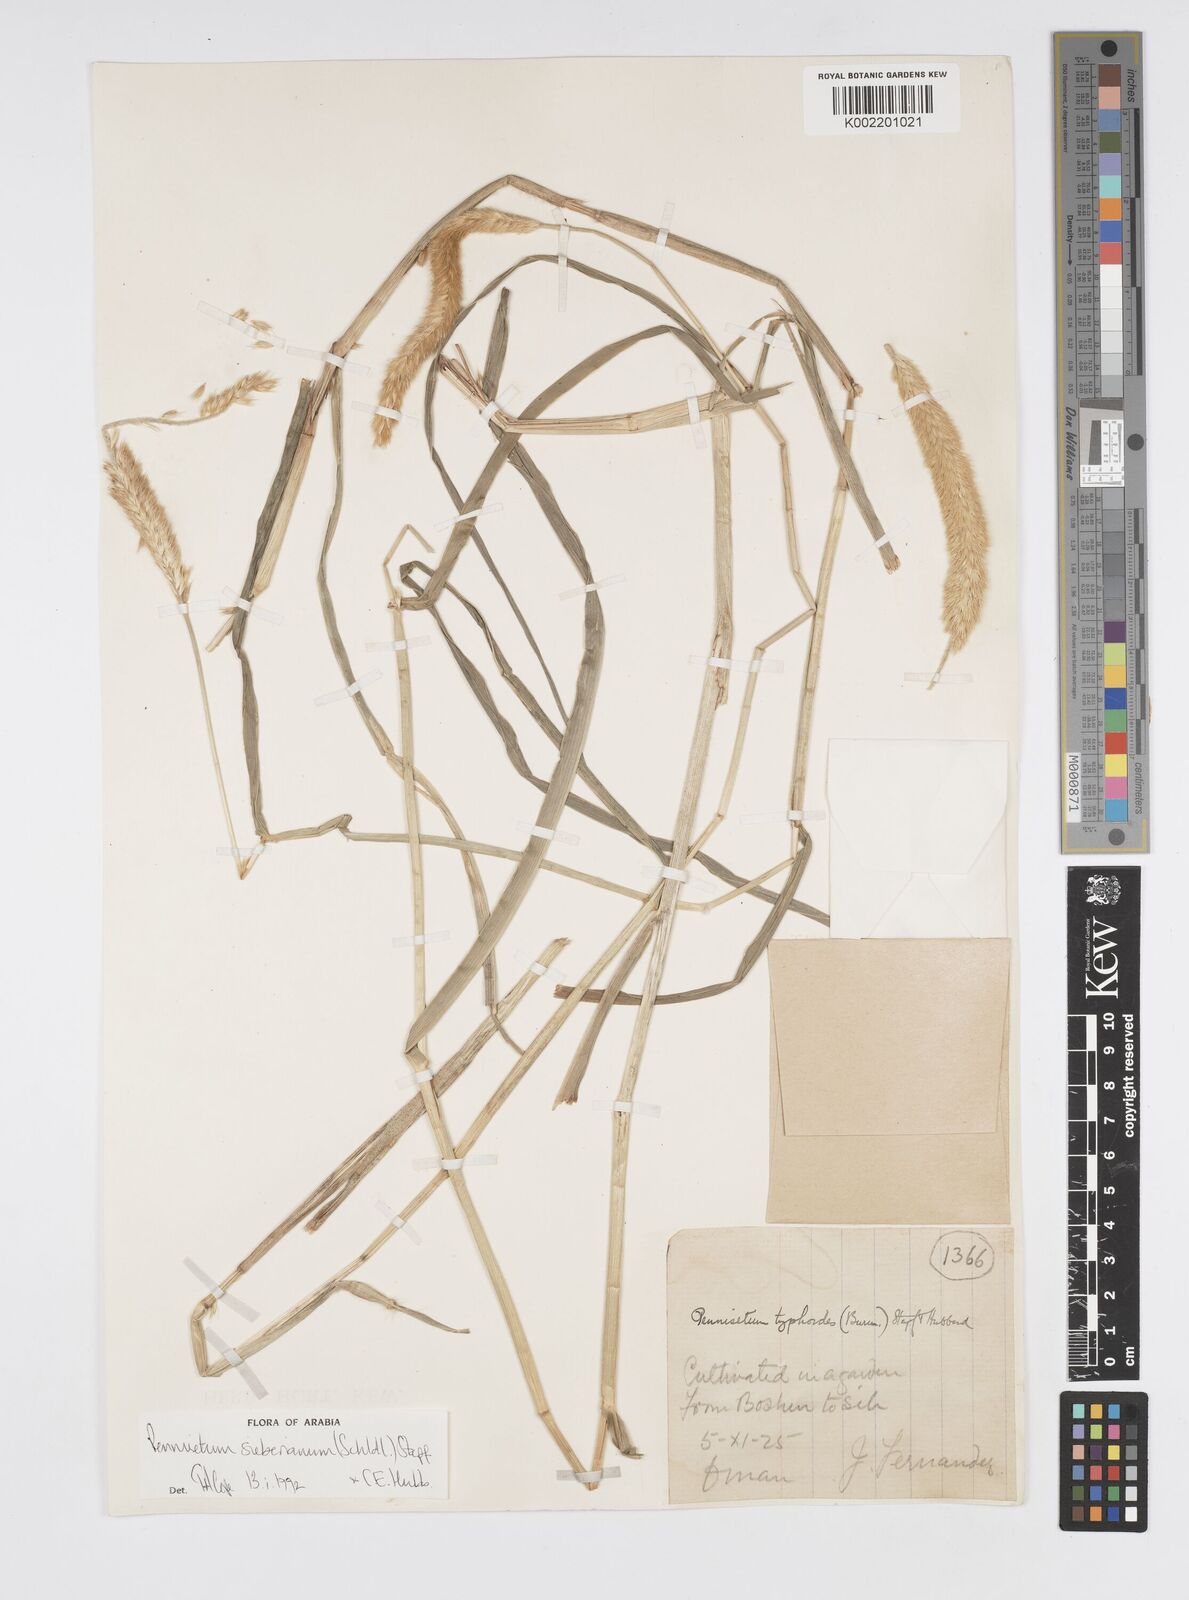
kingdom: Plantae
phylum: Tracheophyta
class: Liliopsida
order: Poales
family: Poaceae
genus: Cenchrus
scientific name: Cenchrus sieberianus
